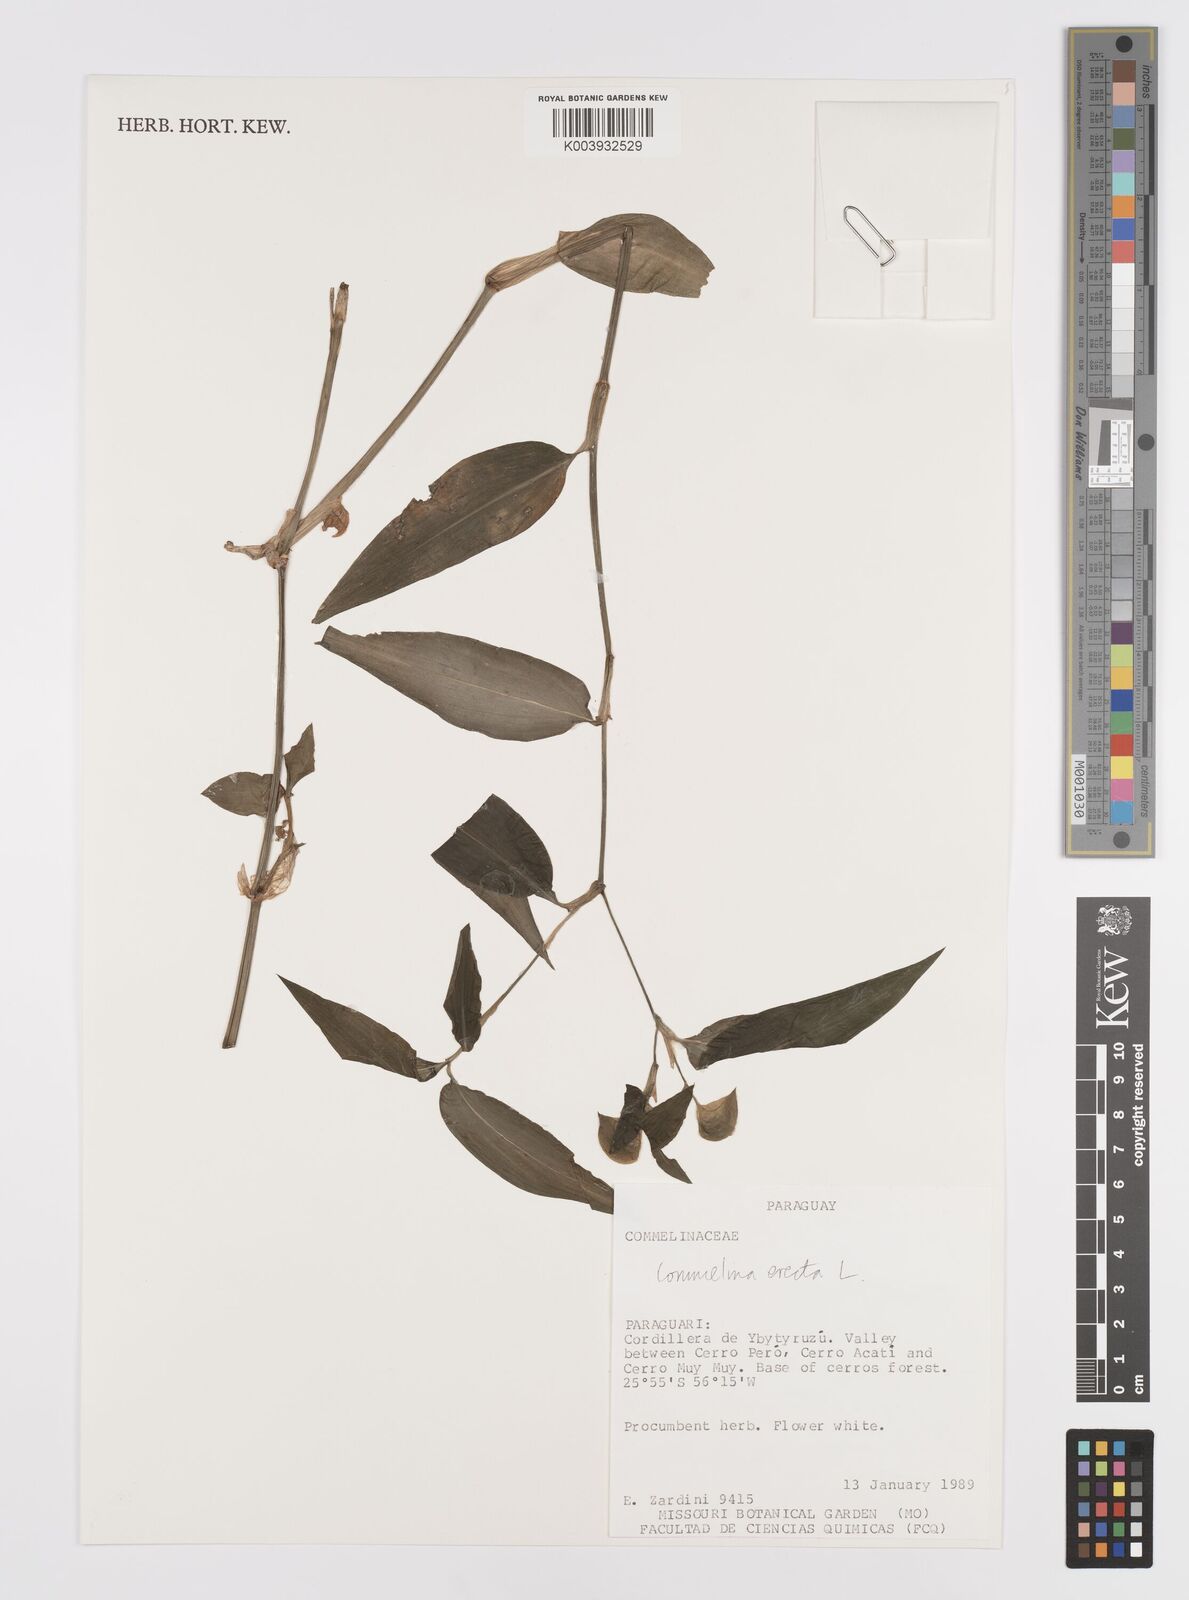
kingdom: Plantae
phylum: Tracheophyta
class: Liliopsida
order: Commelinales
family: Commelinaceae
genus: Commelina
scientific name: Commelina erecta
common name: Blousel blommetjie
